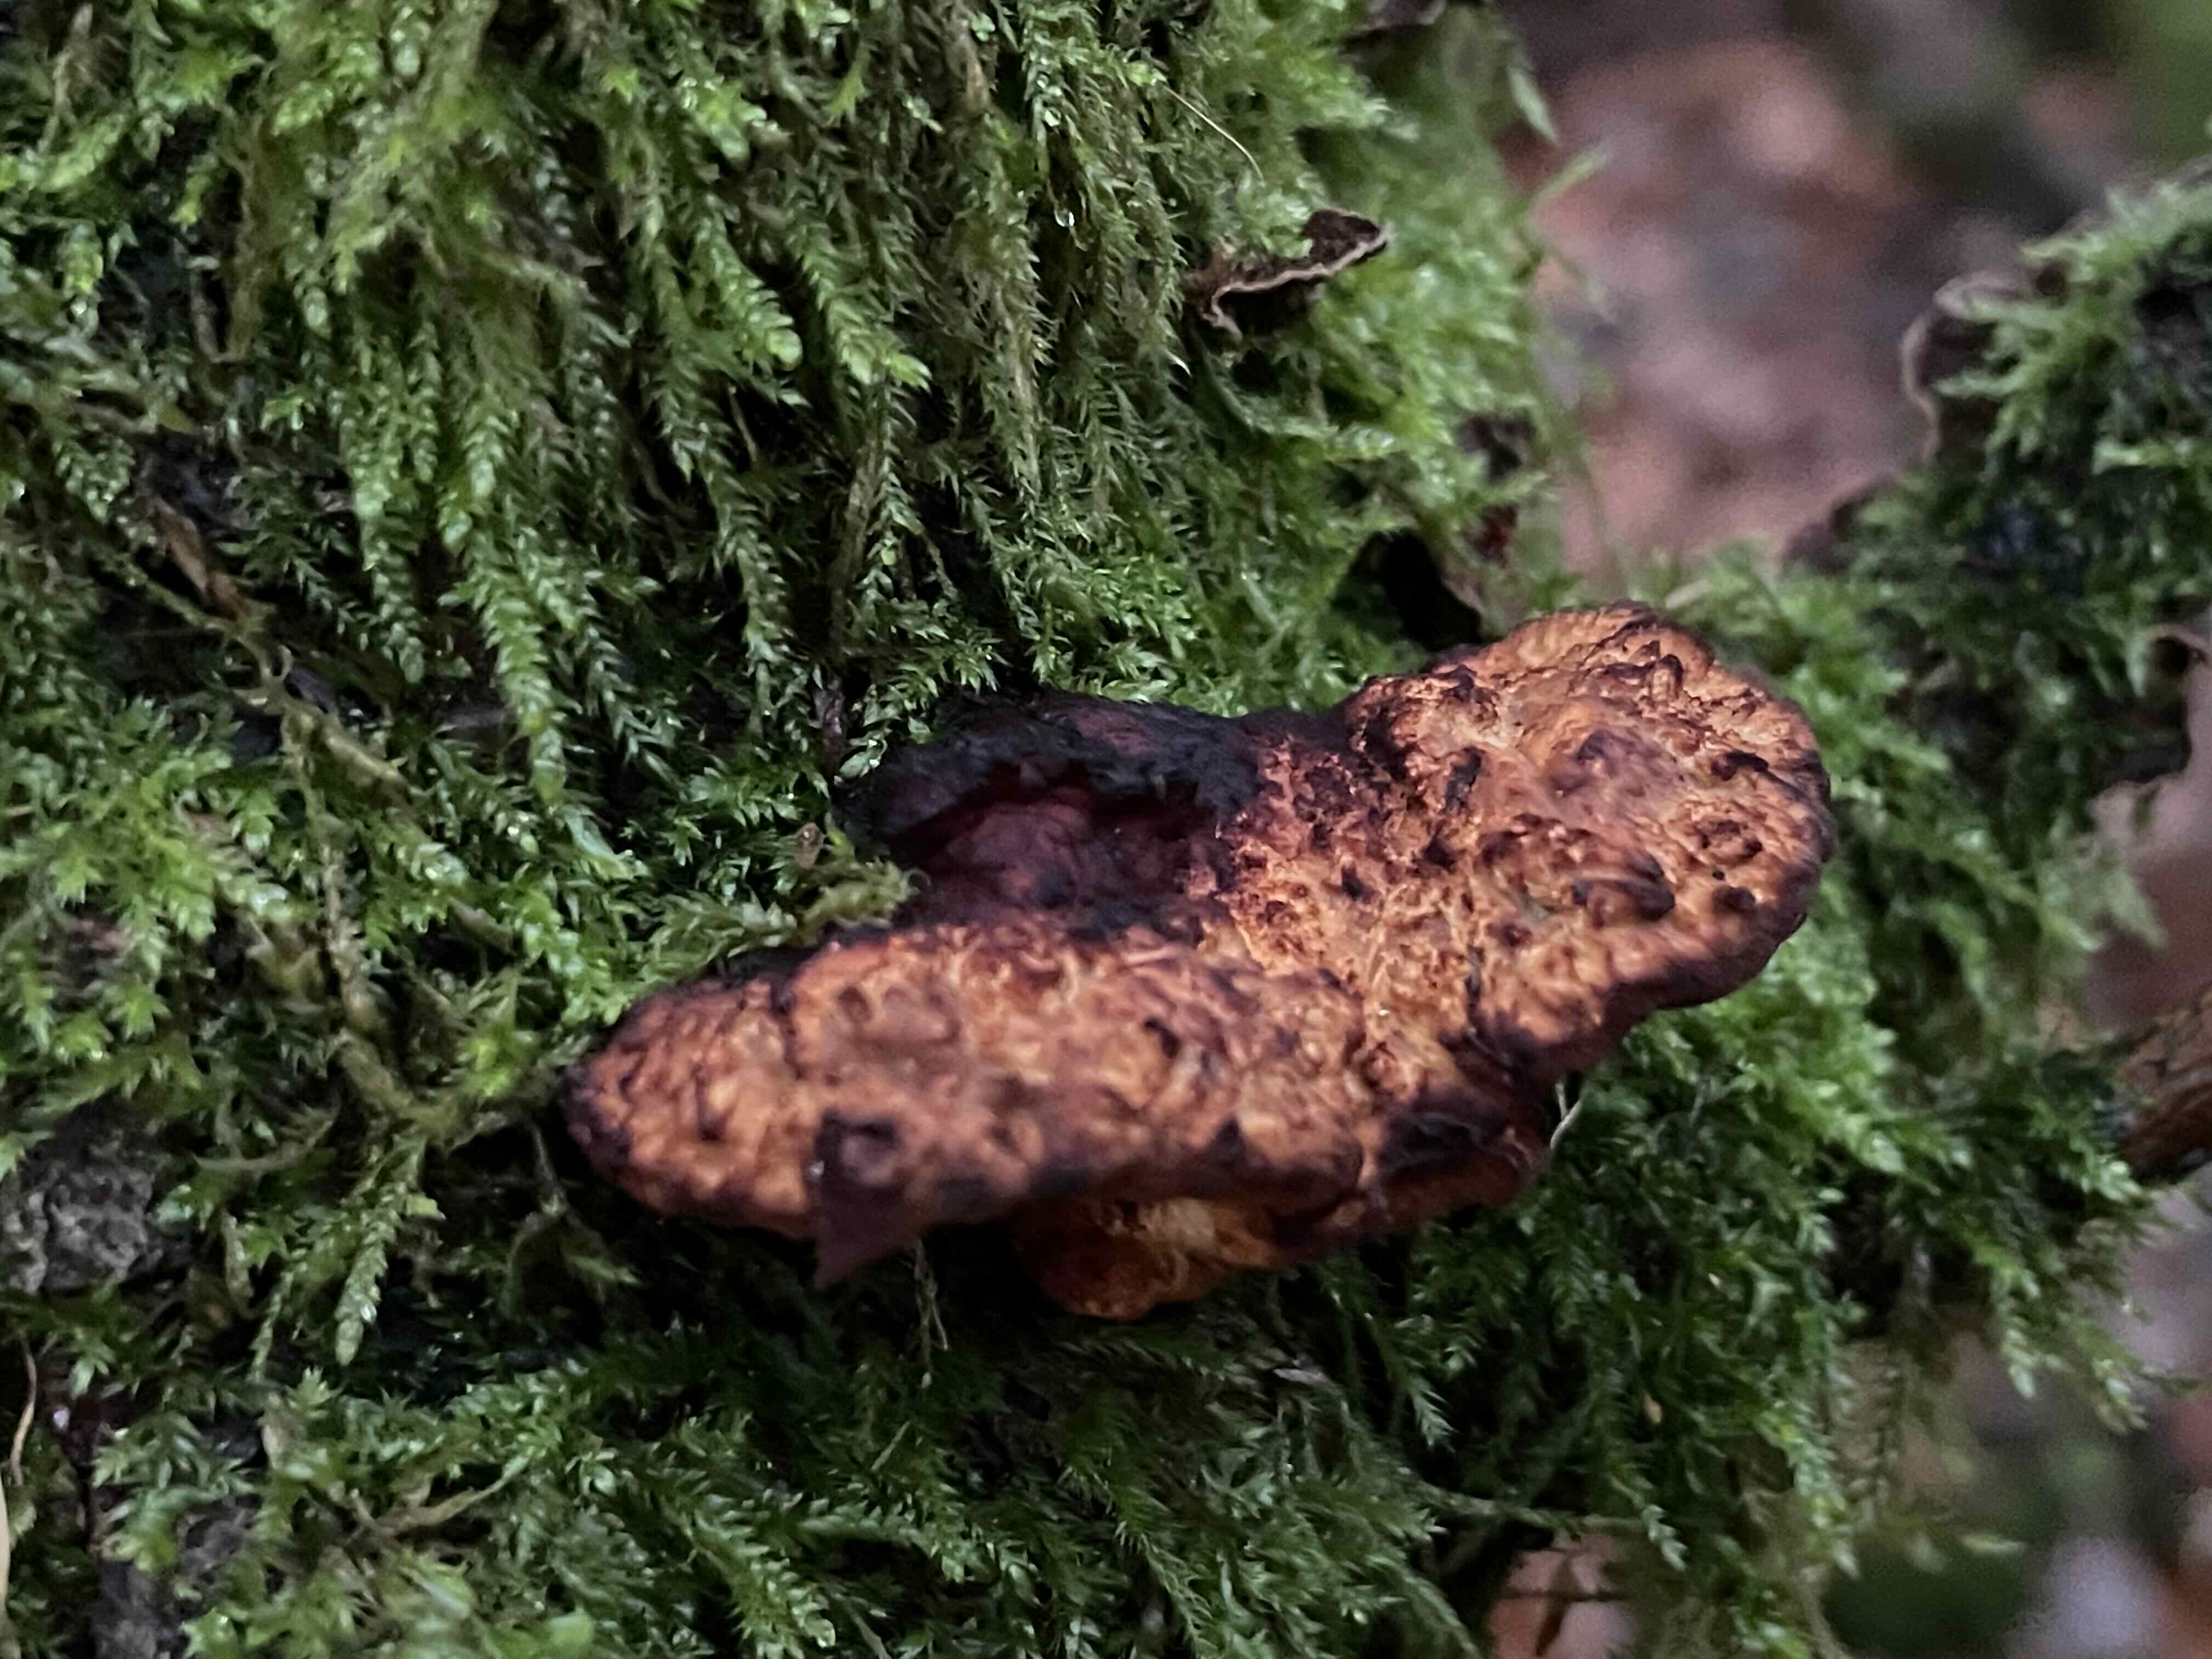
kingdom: Fungi
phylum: Basidiomycota
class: Agaricomycetes
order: Polyporales
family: Polyporaceae
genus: Daedaleopsis
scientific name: Daedaleopsis confragosa
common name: rødmende læderporesvamp
